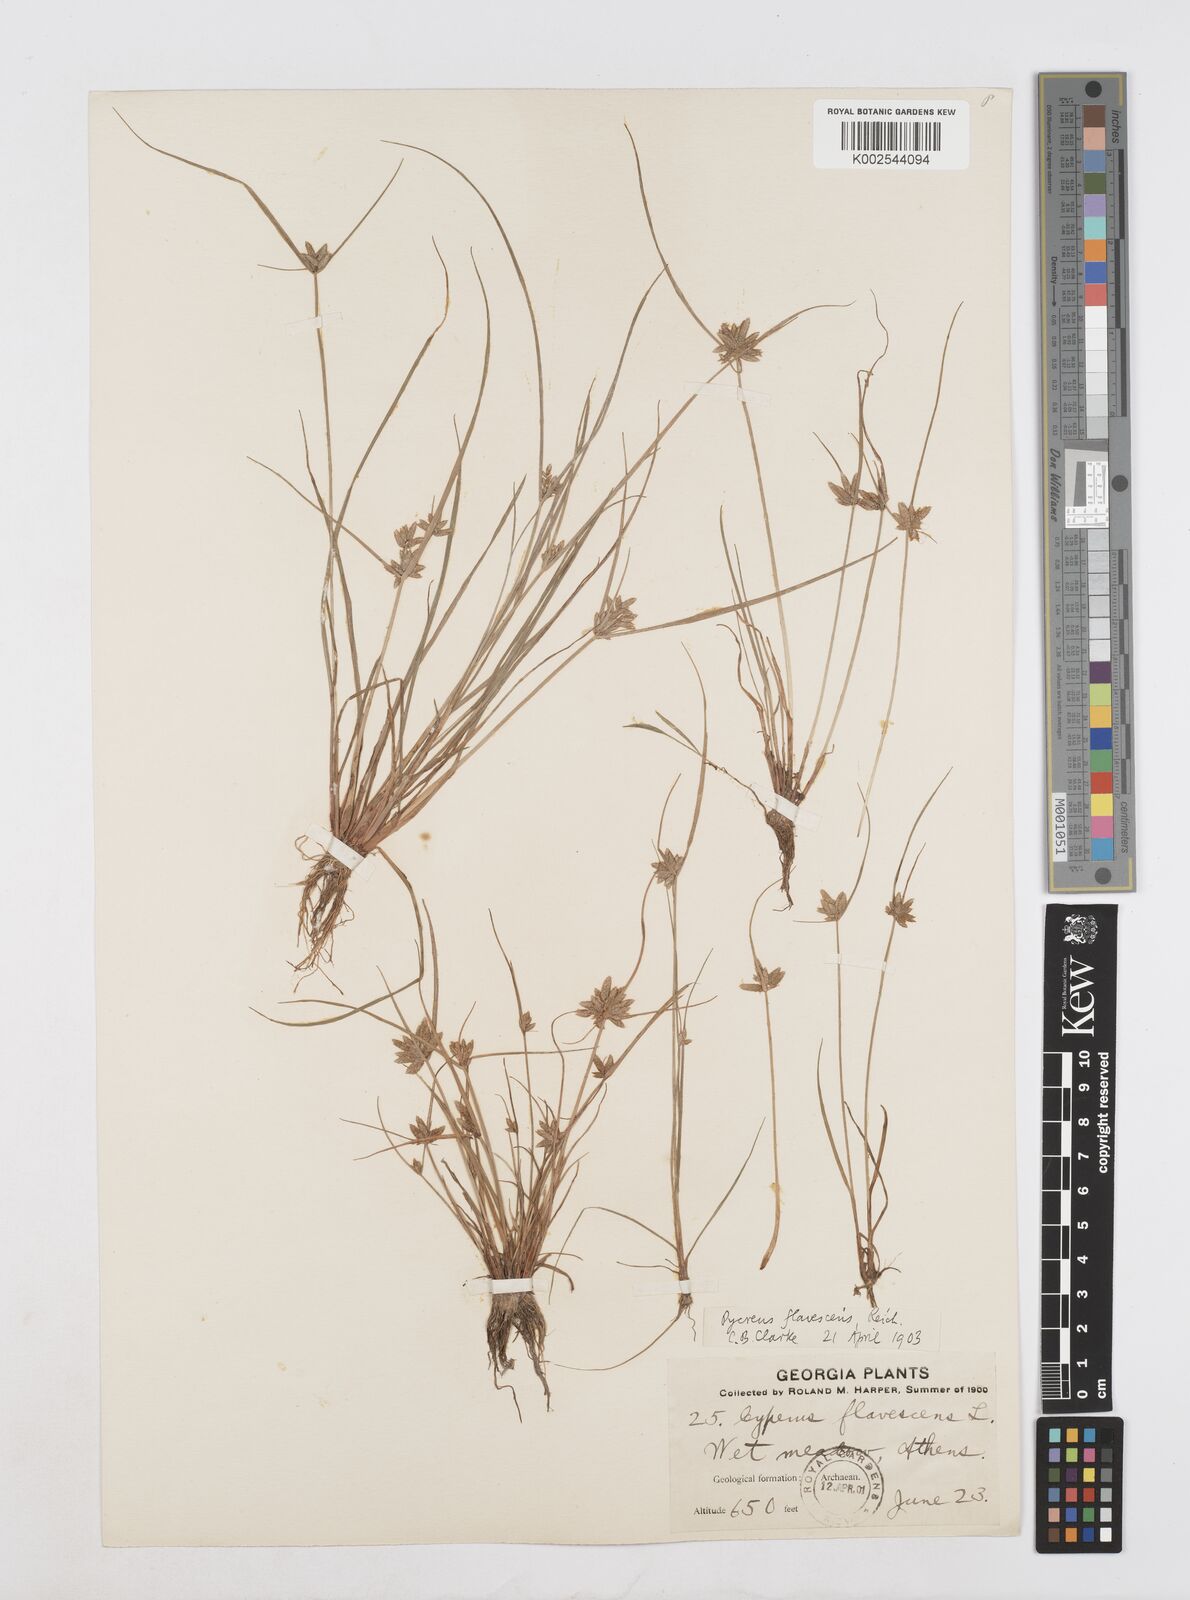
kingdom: Plantae
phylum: Tracheophyta
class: Liliopsida
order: Poales
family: Cyperaceae
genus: Cyperus
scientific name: Cyperus flavescens
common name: Yellow galingale
